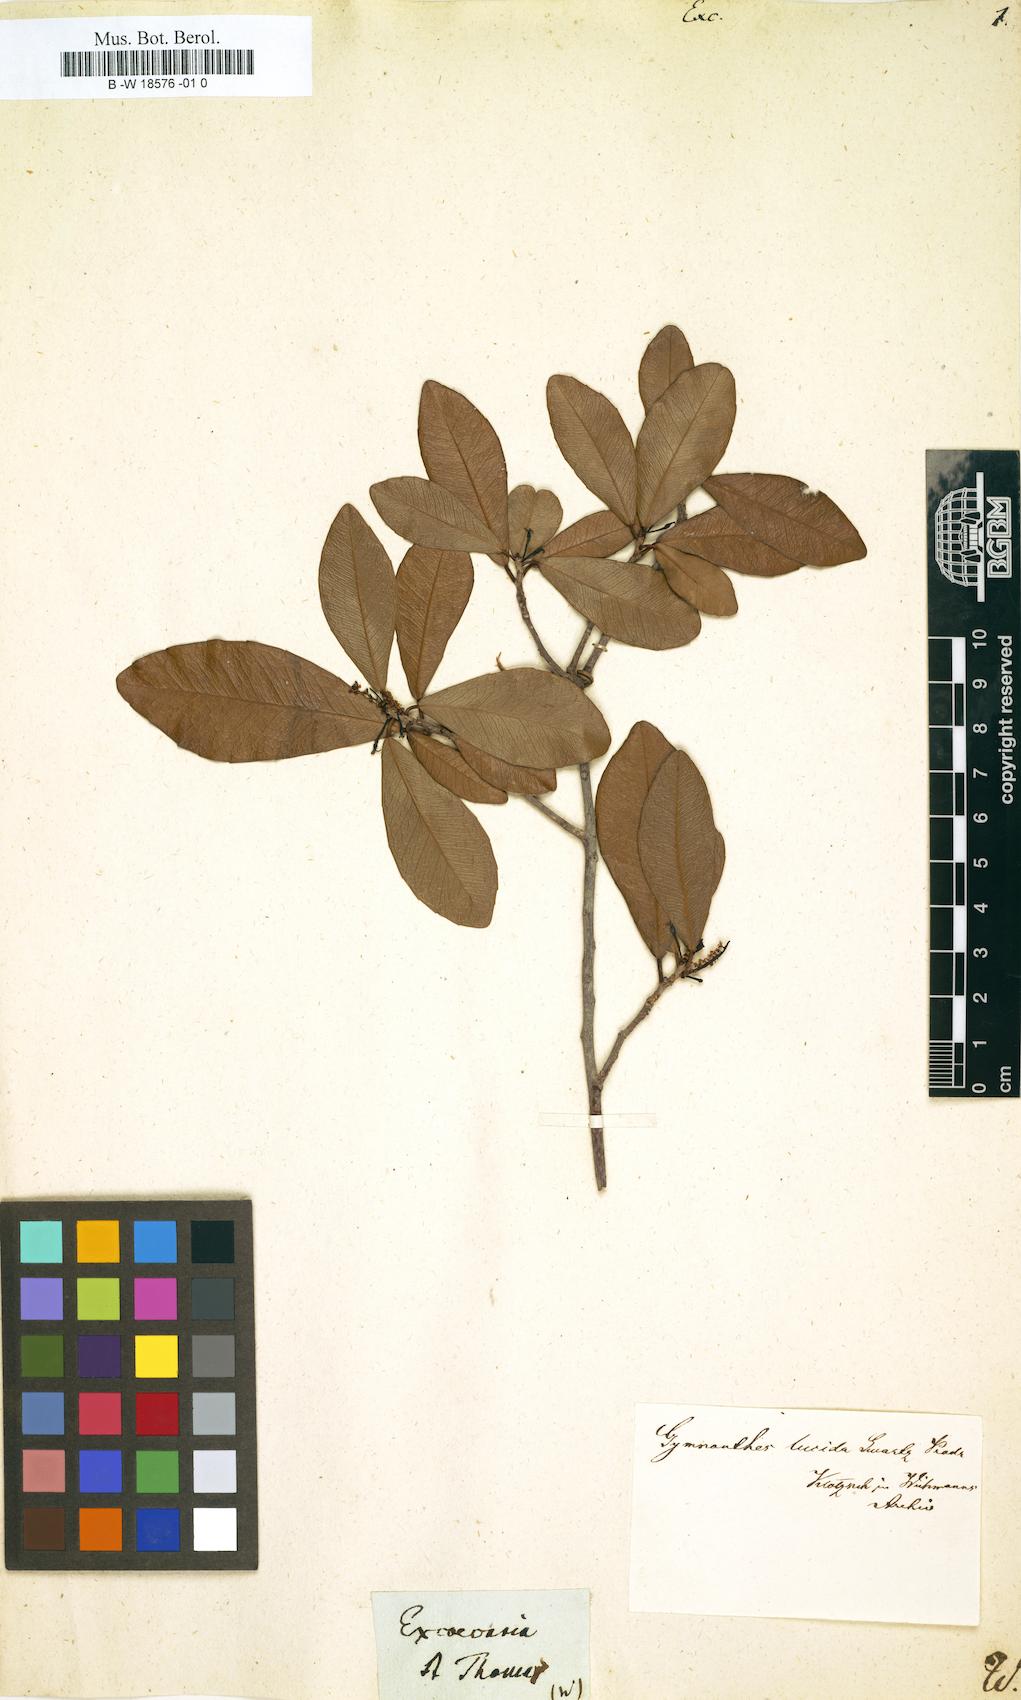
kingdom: Plantae
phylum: Tracheophyta
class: Magnoliopsida
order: Malpighiales
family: Euphorbiaceae
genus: Excoecaria
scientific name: Excoecaria
